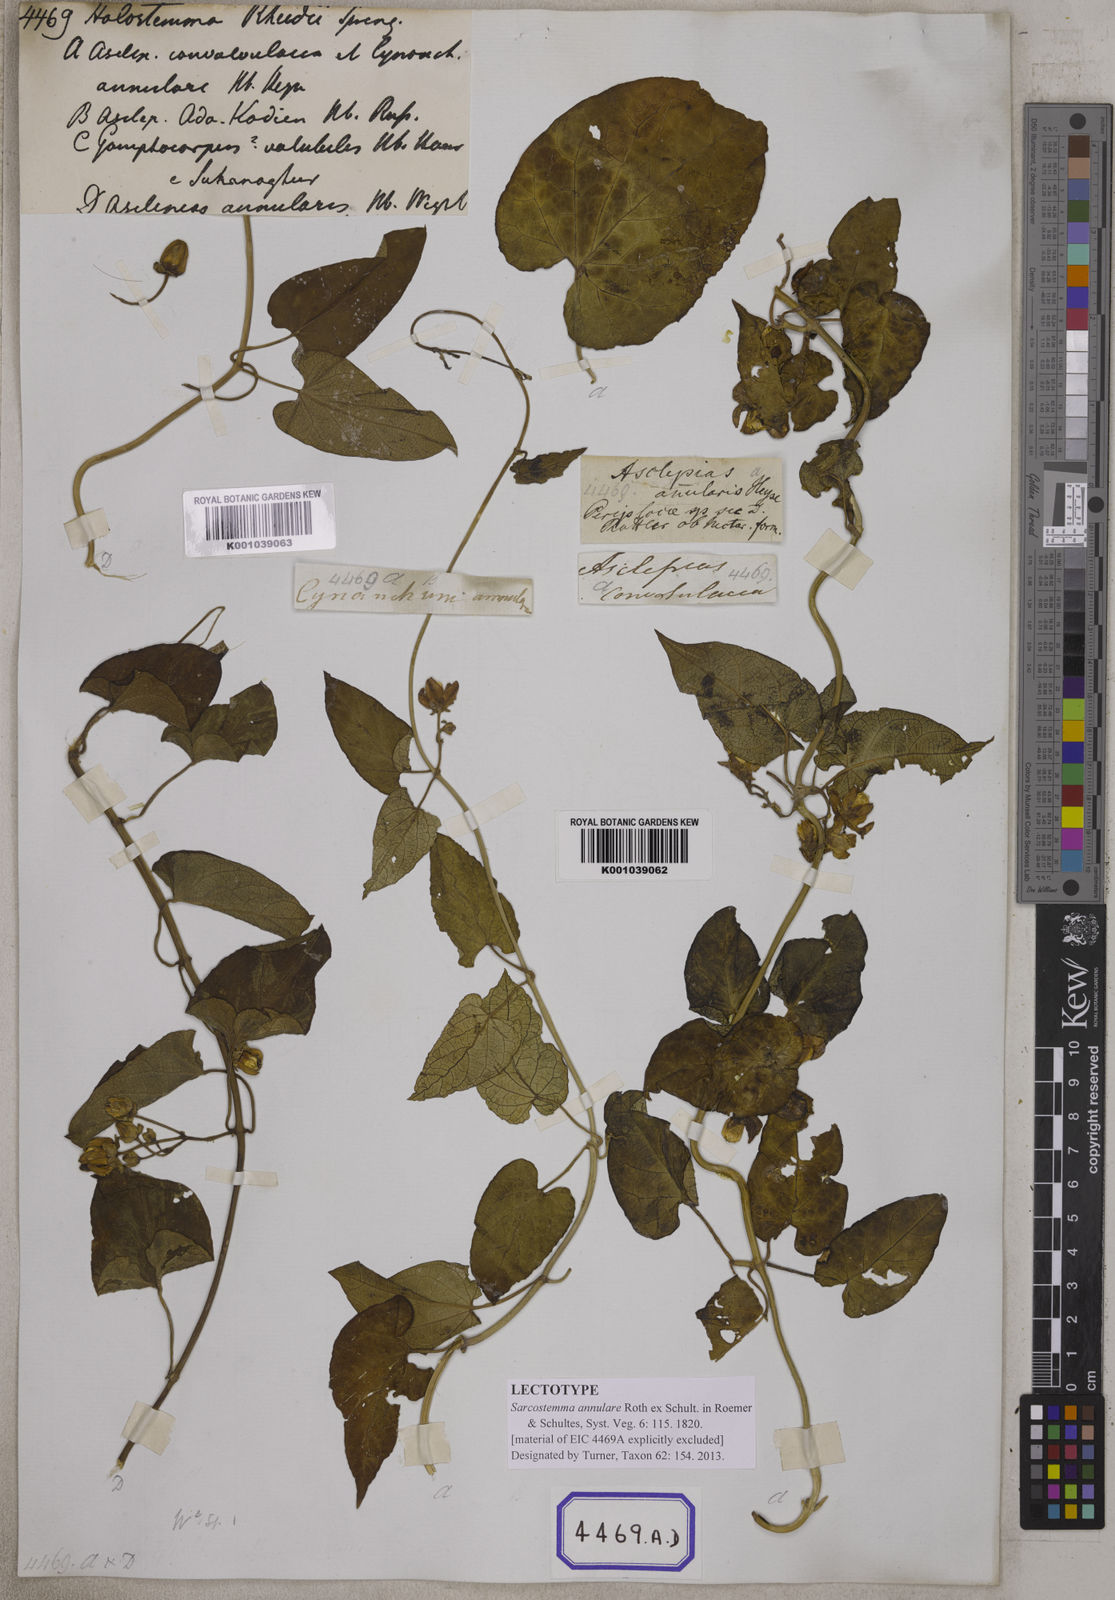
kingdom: Plantae
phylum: Tracheophyta
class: Magnoliopsida
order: Gentianales
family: Apocynaceae
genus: Cynanchum
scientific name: Cynanchum annularium
